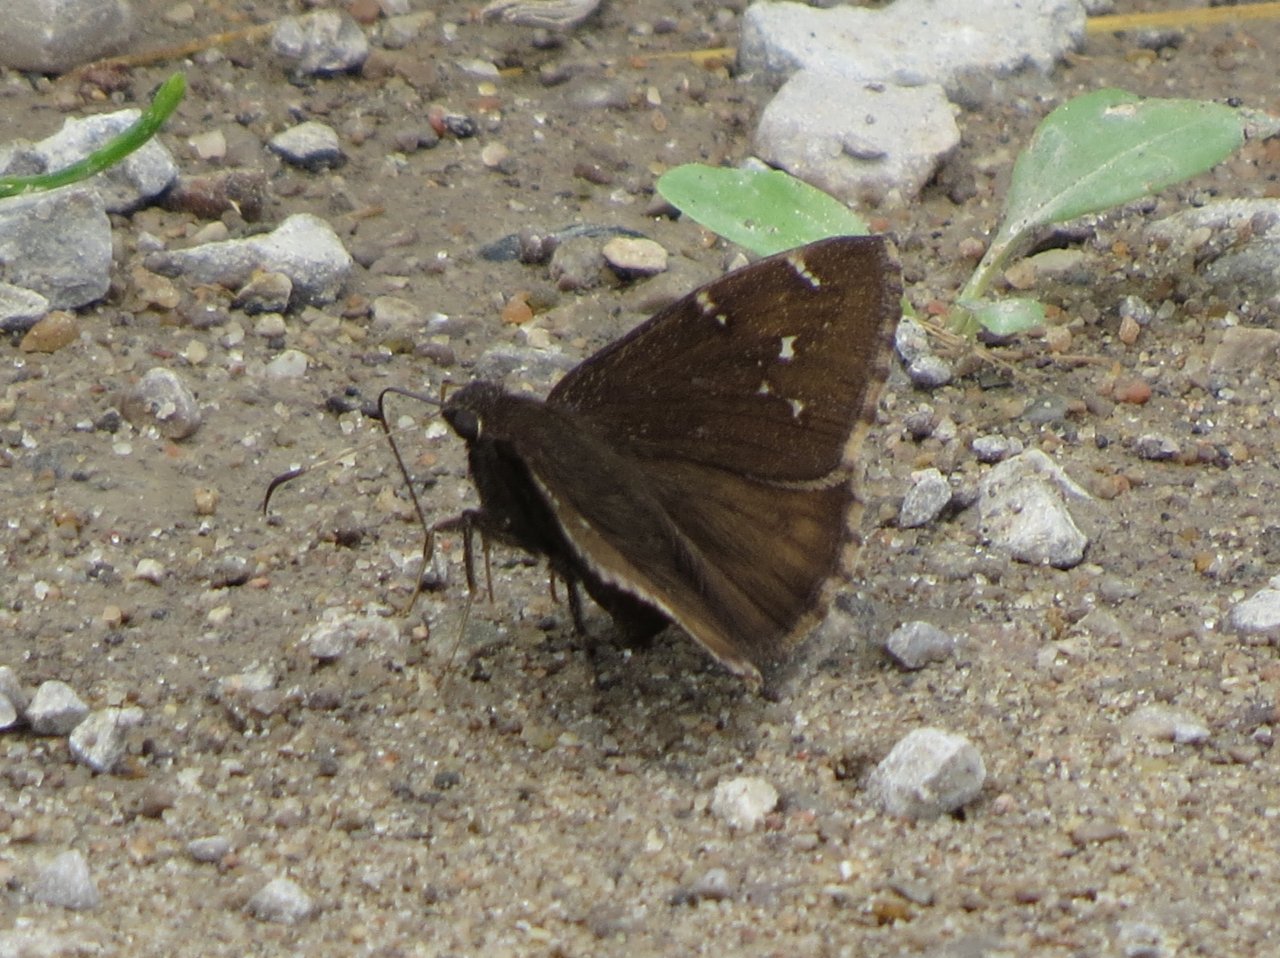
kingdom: Animalia
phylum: Arthropoda
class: Insecta
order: Lepidoptera
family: Hesperiidae
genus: Autochton
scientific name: Autochton
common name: Northern Cloudywing
